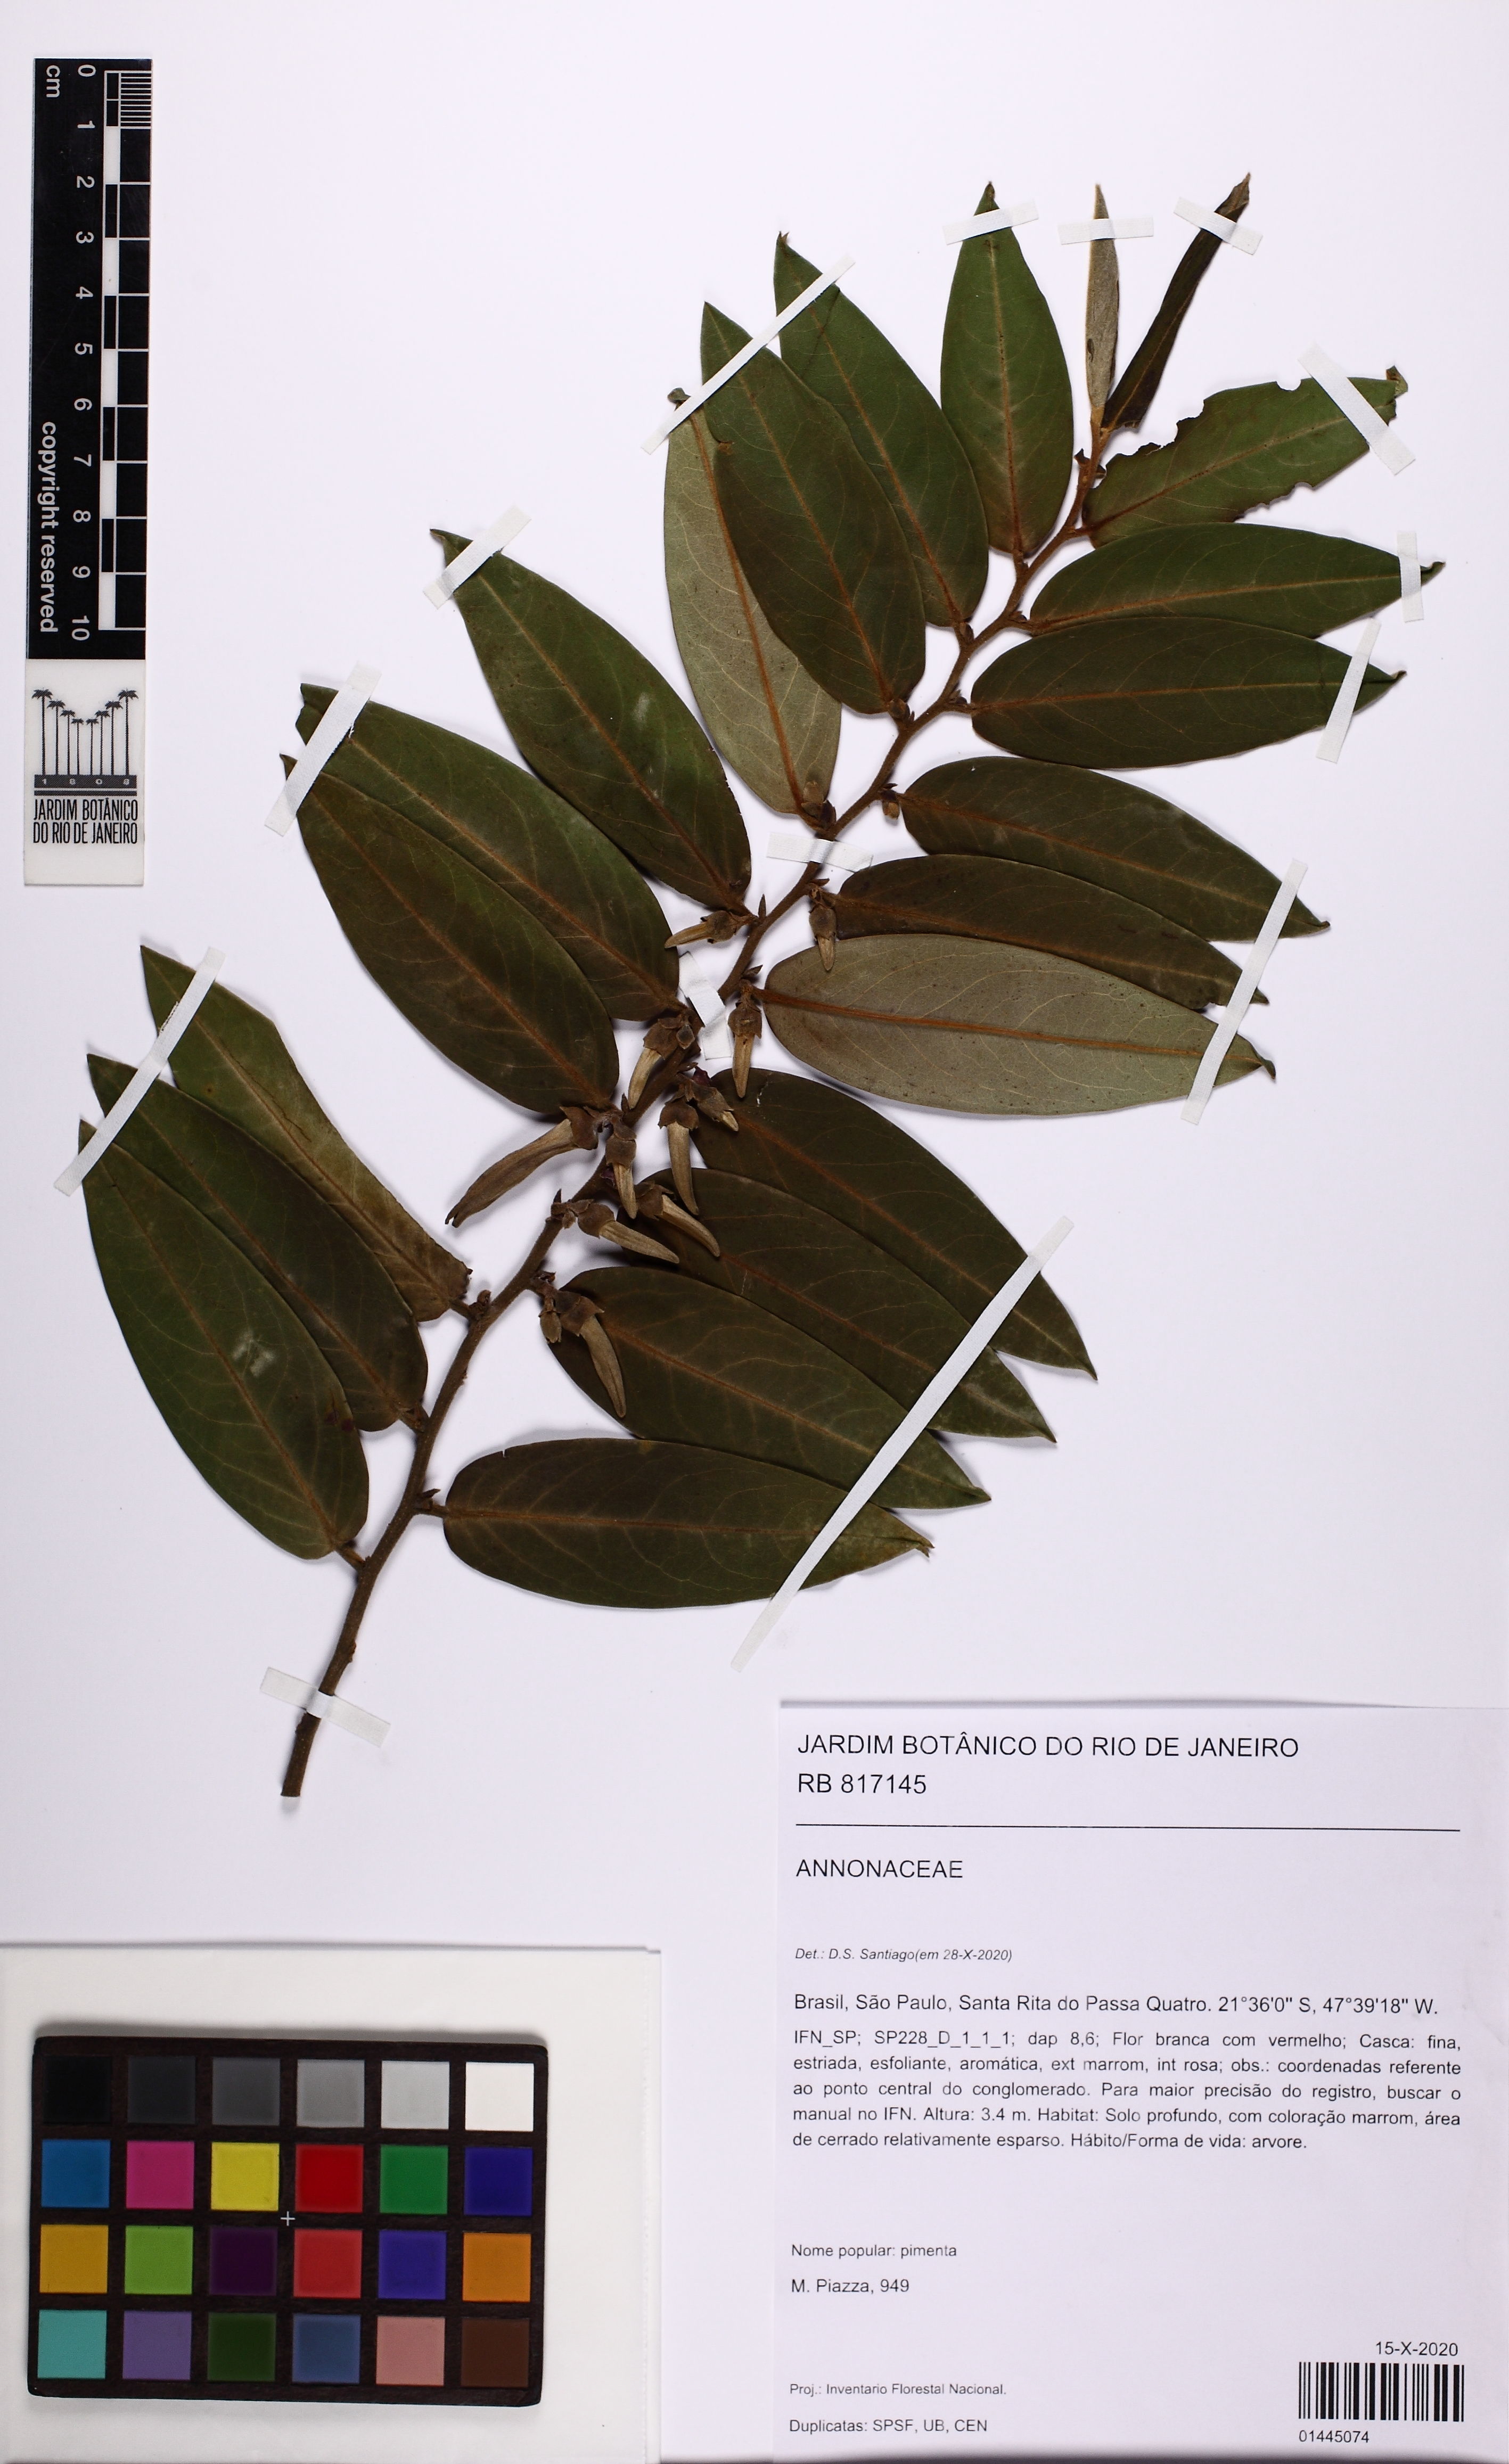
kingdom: Plantae
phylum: Tracheophyta
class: Magnoliopsida
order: Magnoliales
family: Annonaceae
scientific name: Annonaceae
